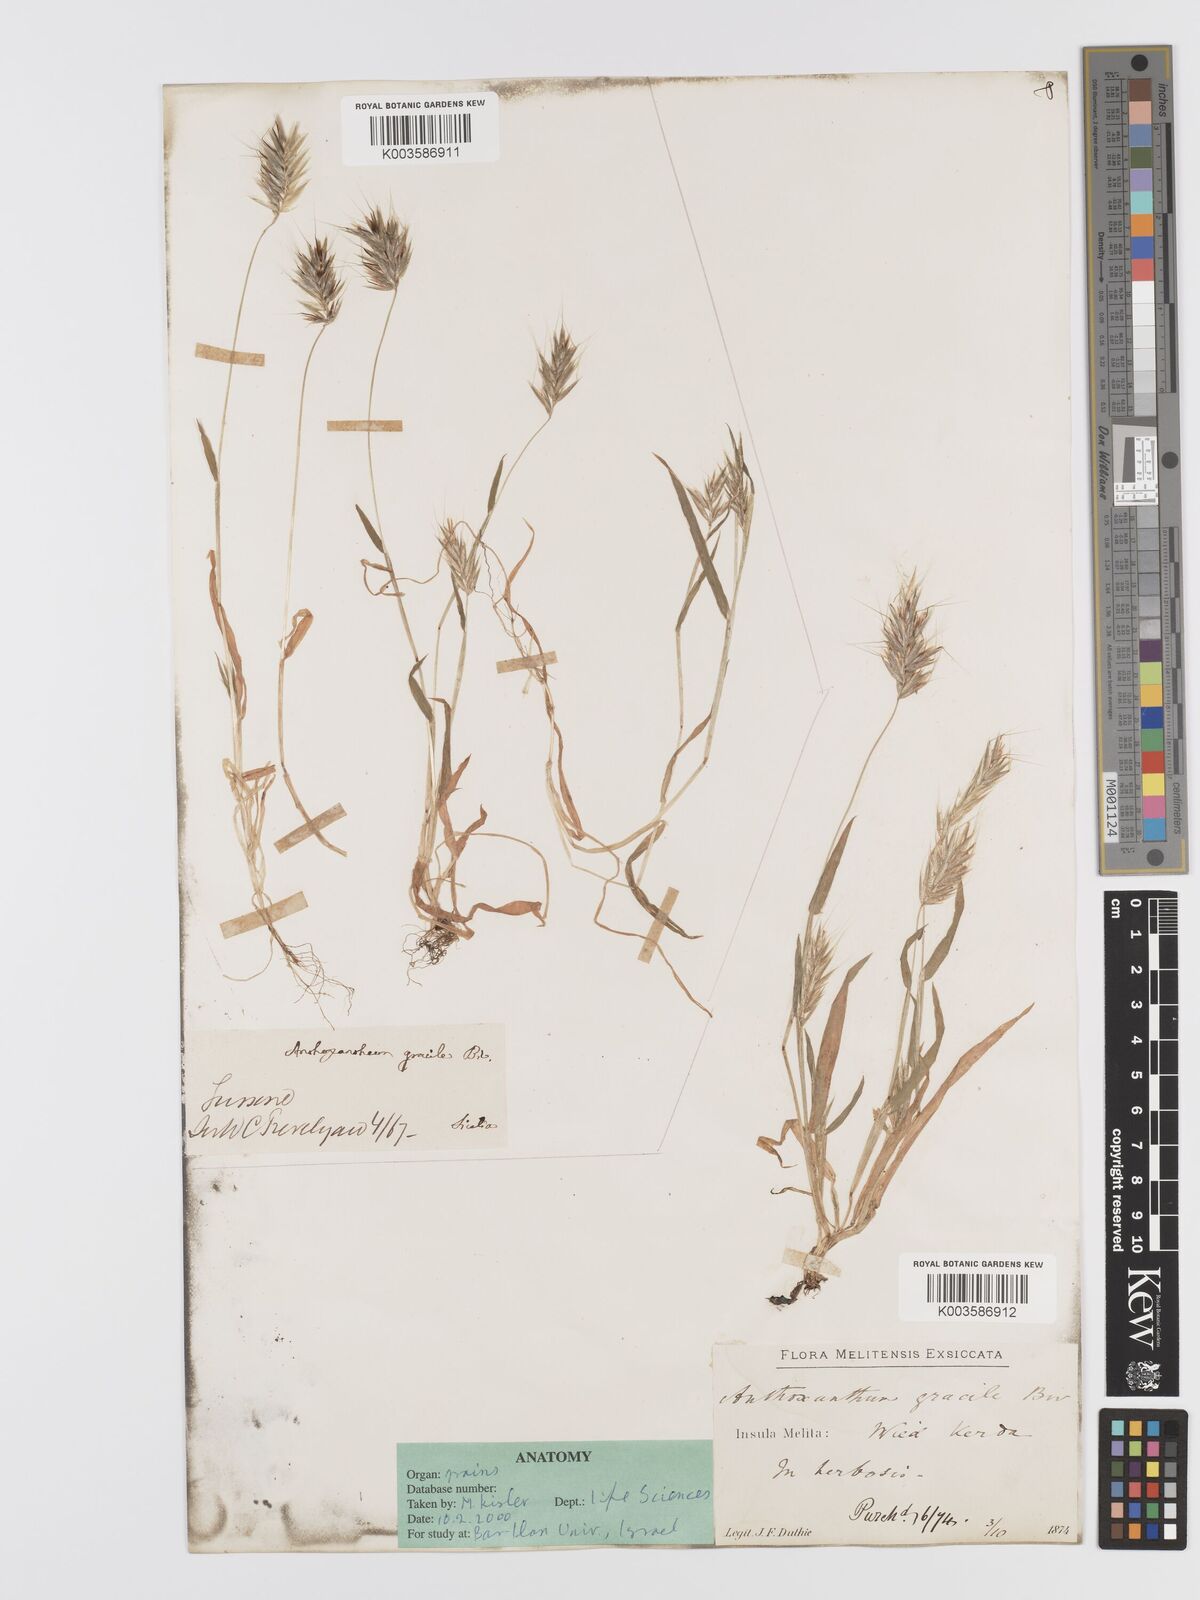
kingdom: Plantae
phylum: Tracheophyta
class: Liliopsida
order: Poales
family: Poaceae
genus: Anthoxanthum
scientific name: Anthoxanthum gracile
